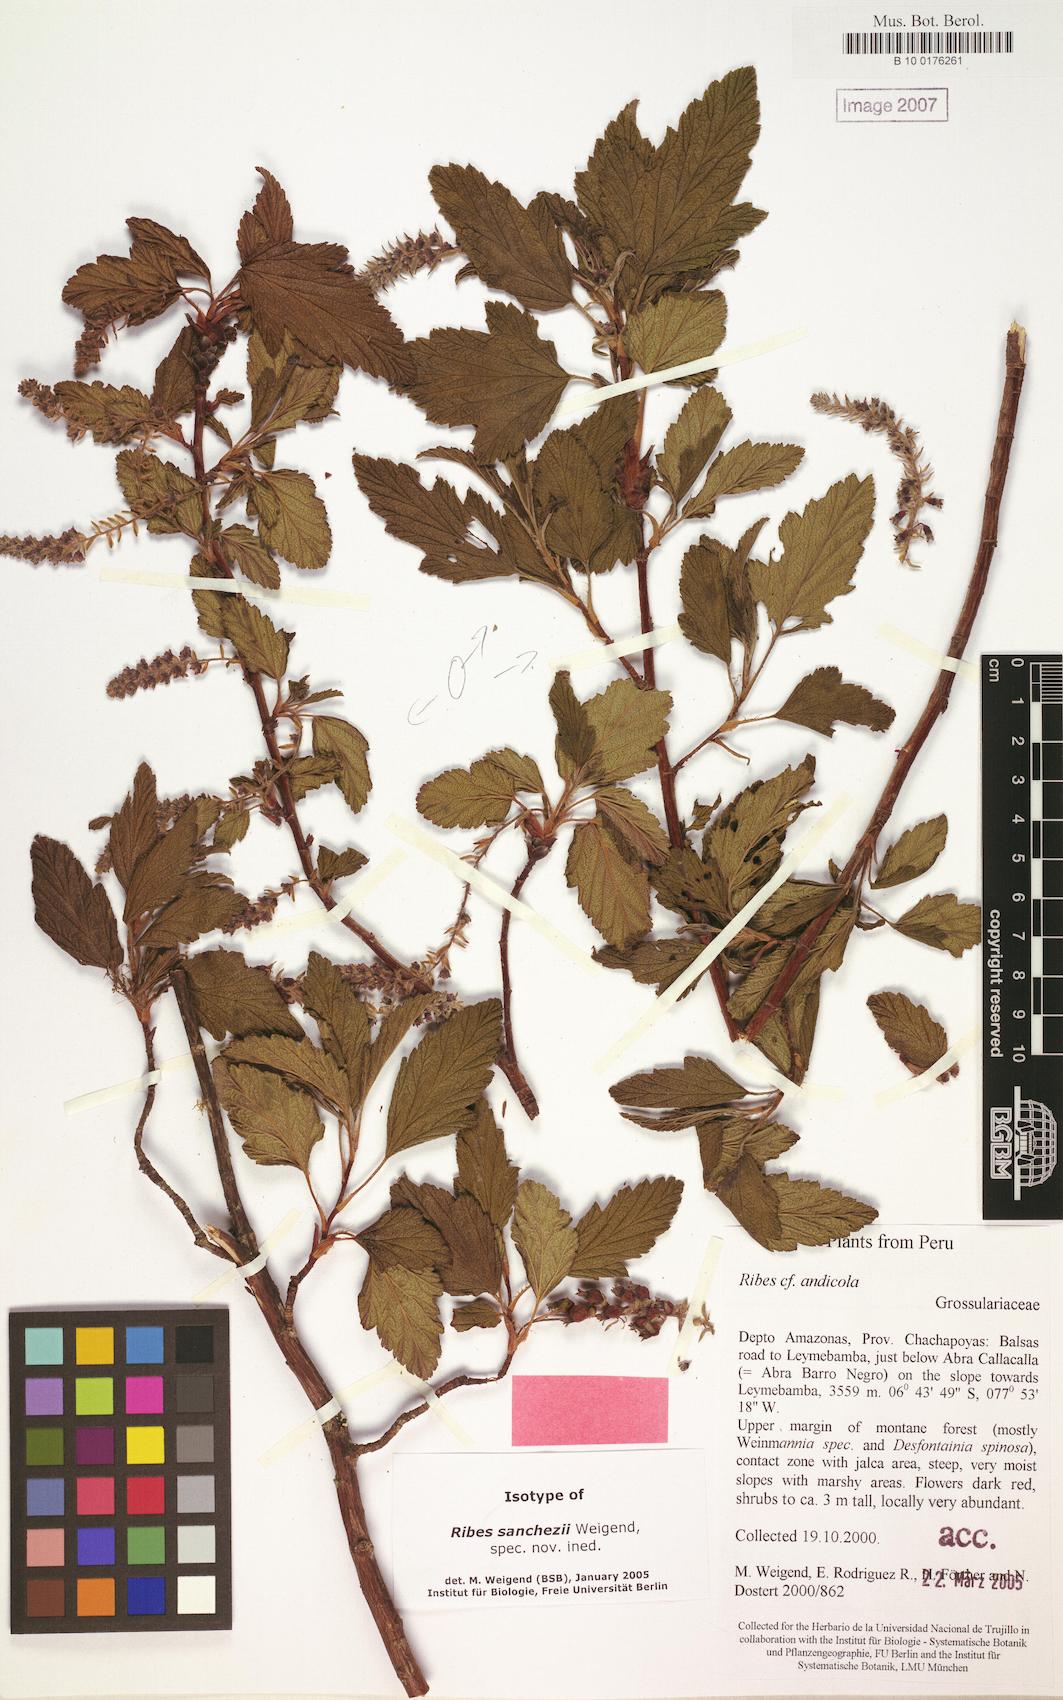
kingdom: Plantae
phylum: Tracheophyta
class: Magnoliopsida
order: Saxifragales
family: Grossulariaceae
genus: Ribes
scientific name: Ribes sanchezii
